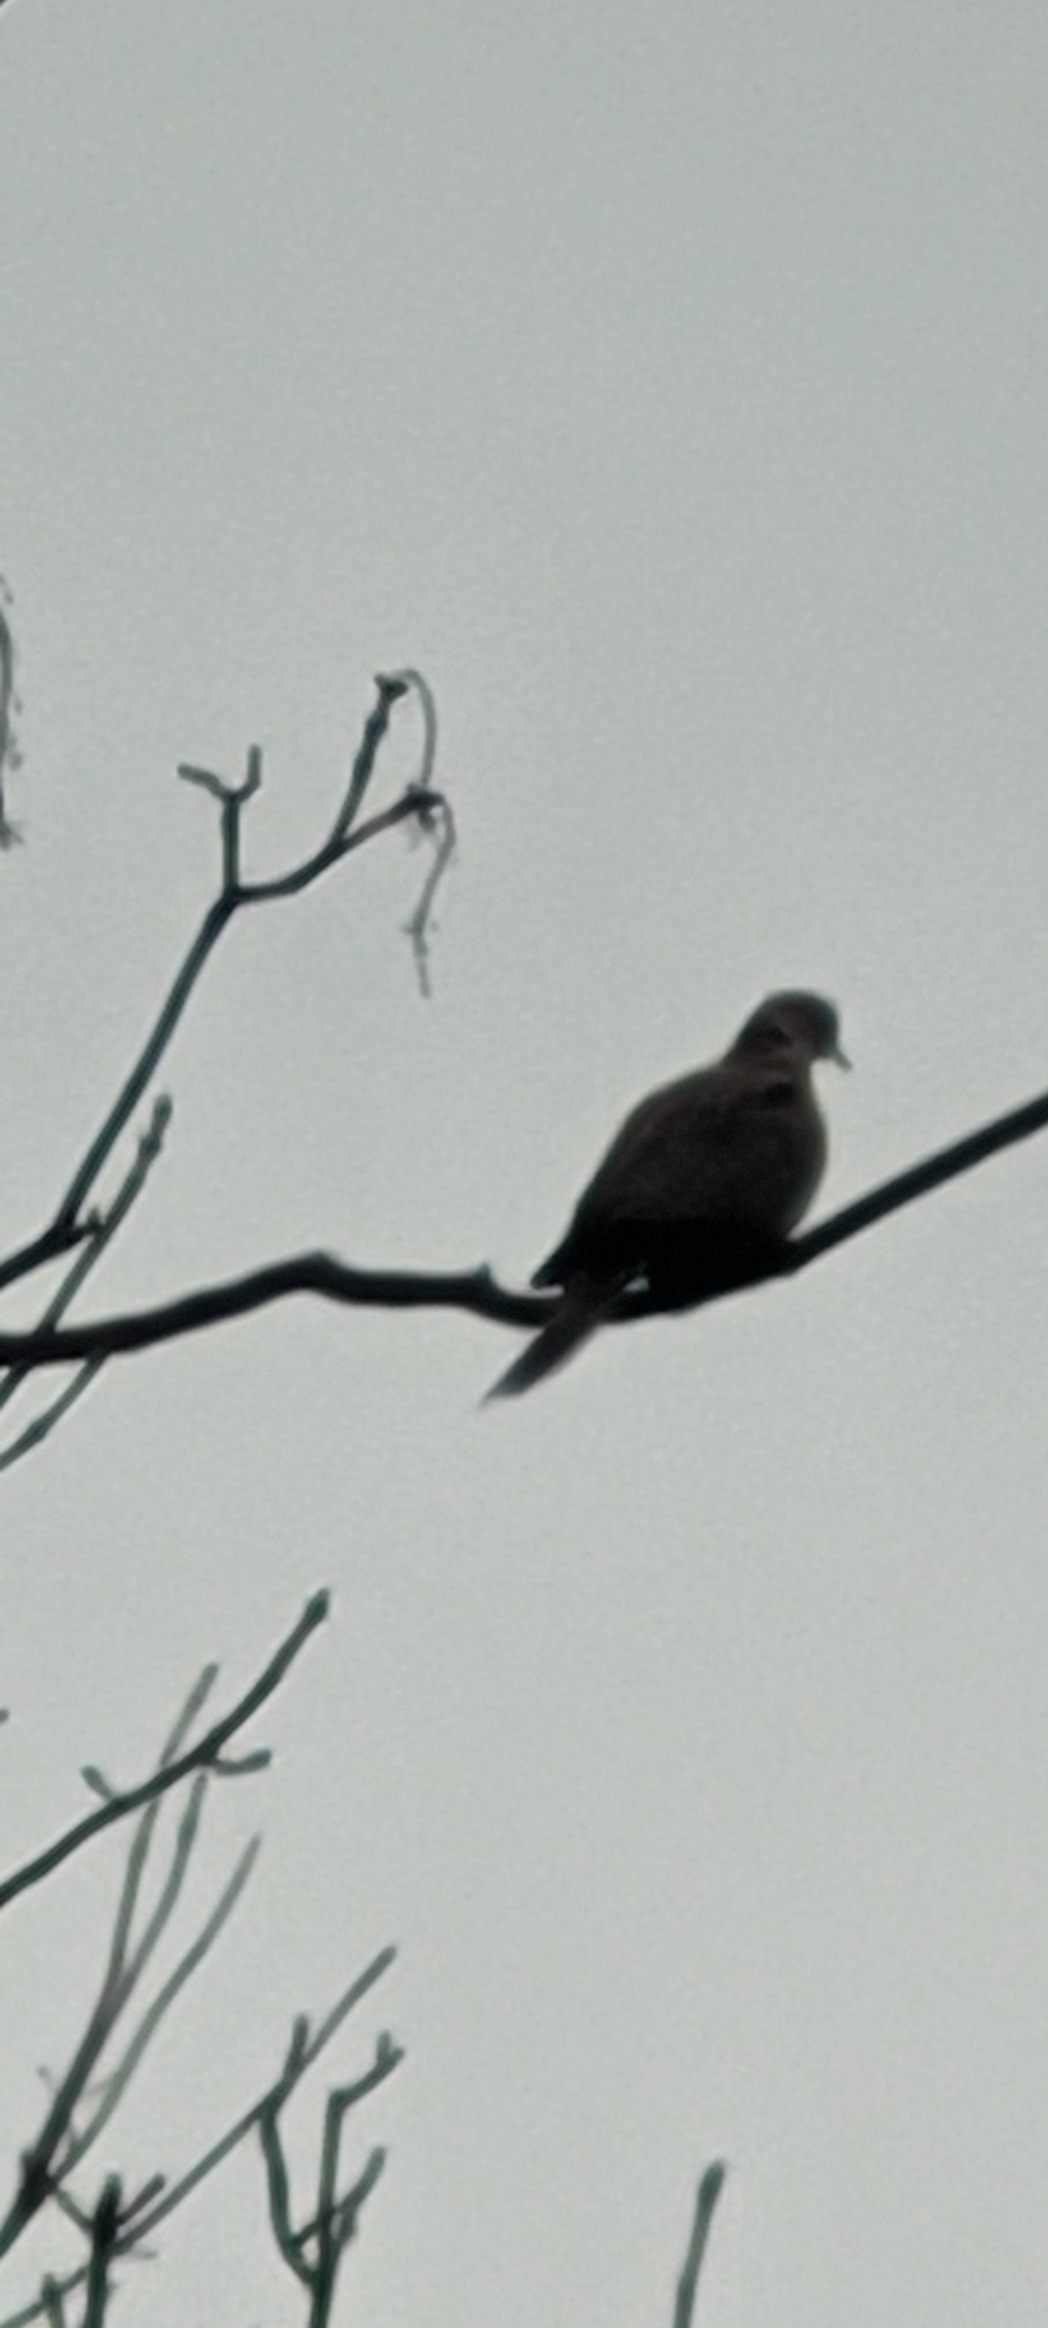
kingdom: Animalia
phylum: Chordata
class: Aves
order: Columbiformes
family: Columbidae
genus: Streptopelia
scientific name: Streptopelia decaocto
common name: Tyrkerdue
